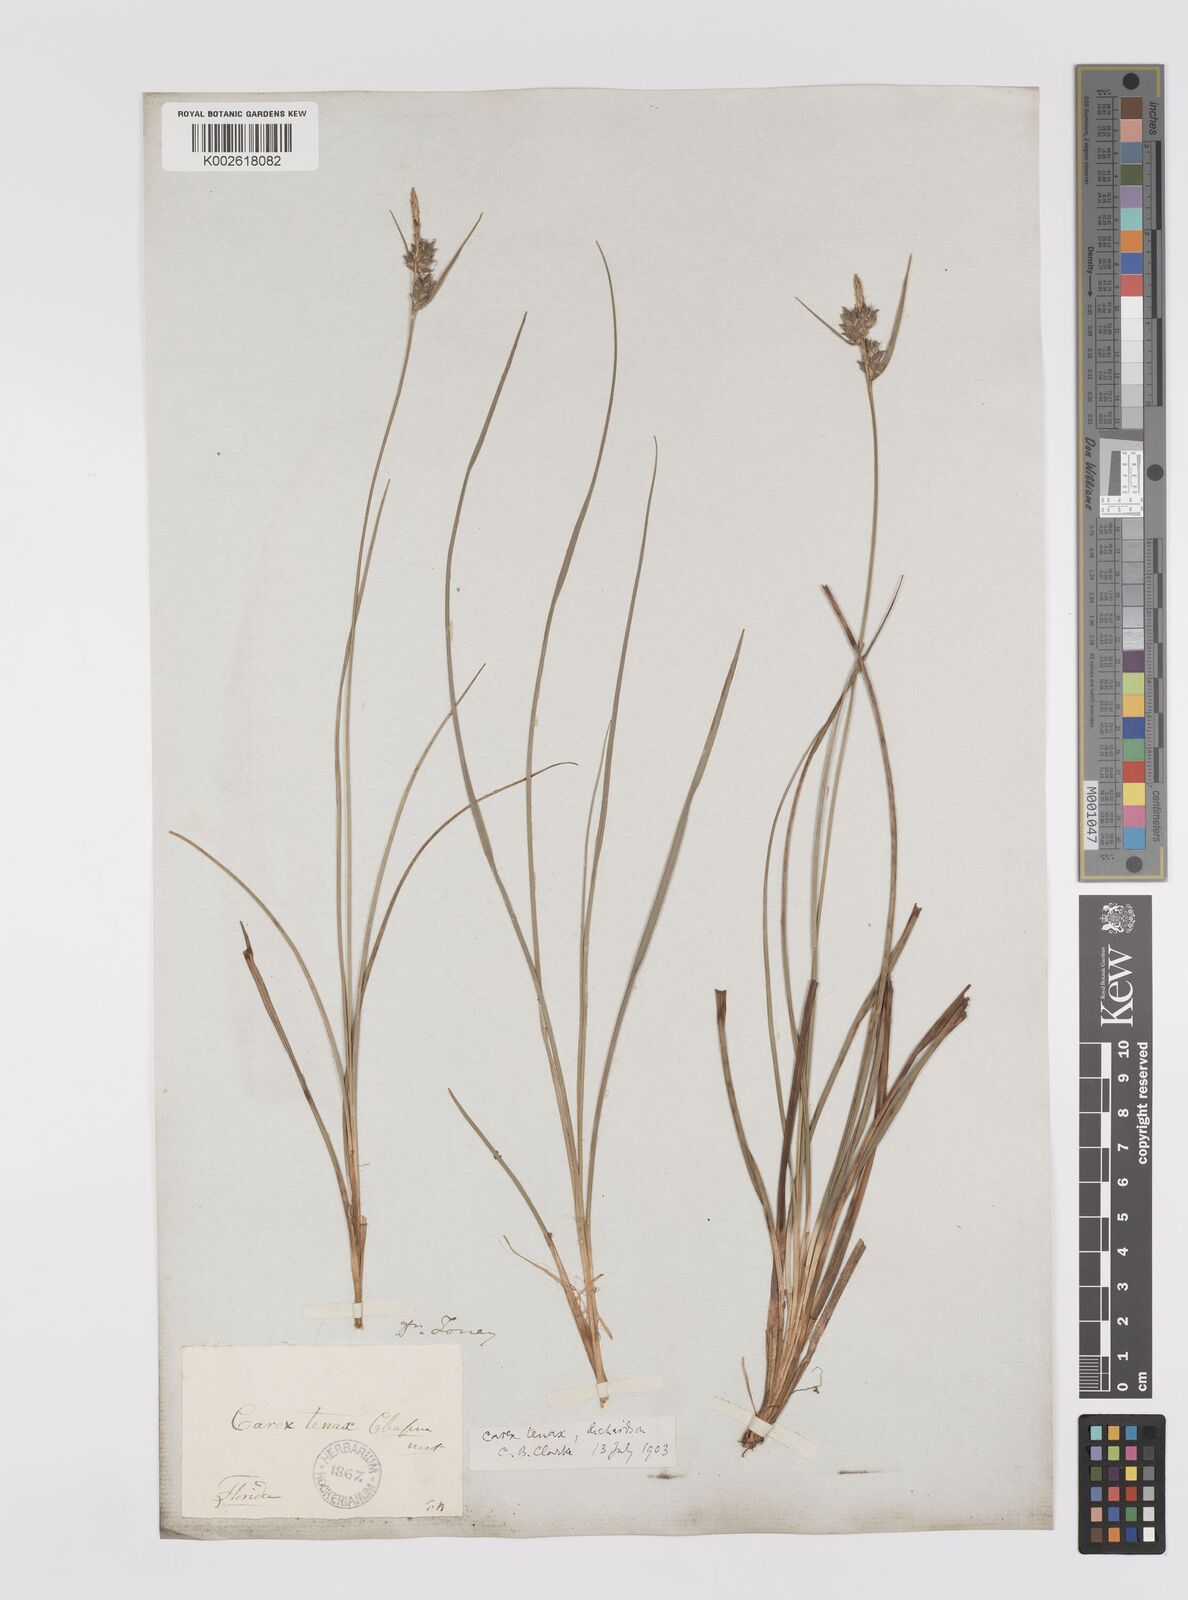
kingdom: Plantae
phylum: Tracheophyta
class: Liliopsida
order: Poales
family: Cyperaceae
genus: Carex
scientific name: Carex tenax
